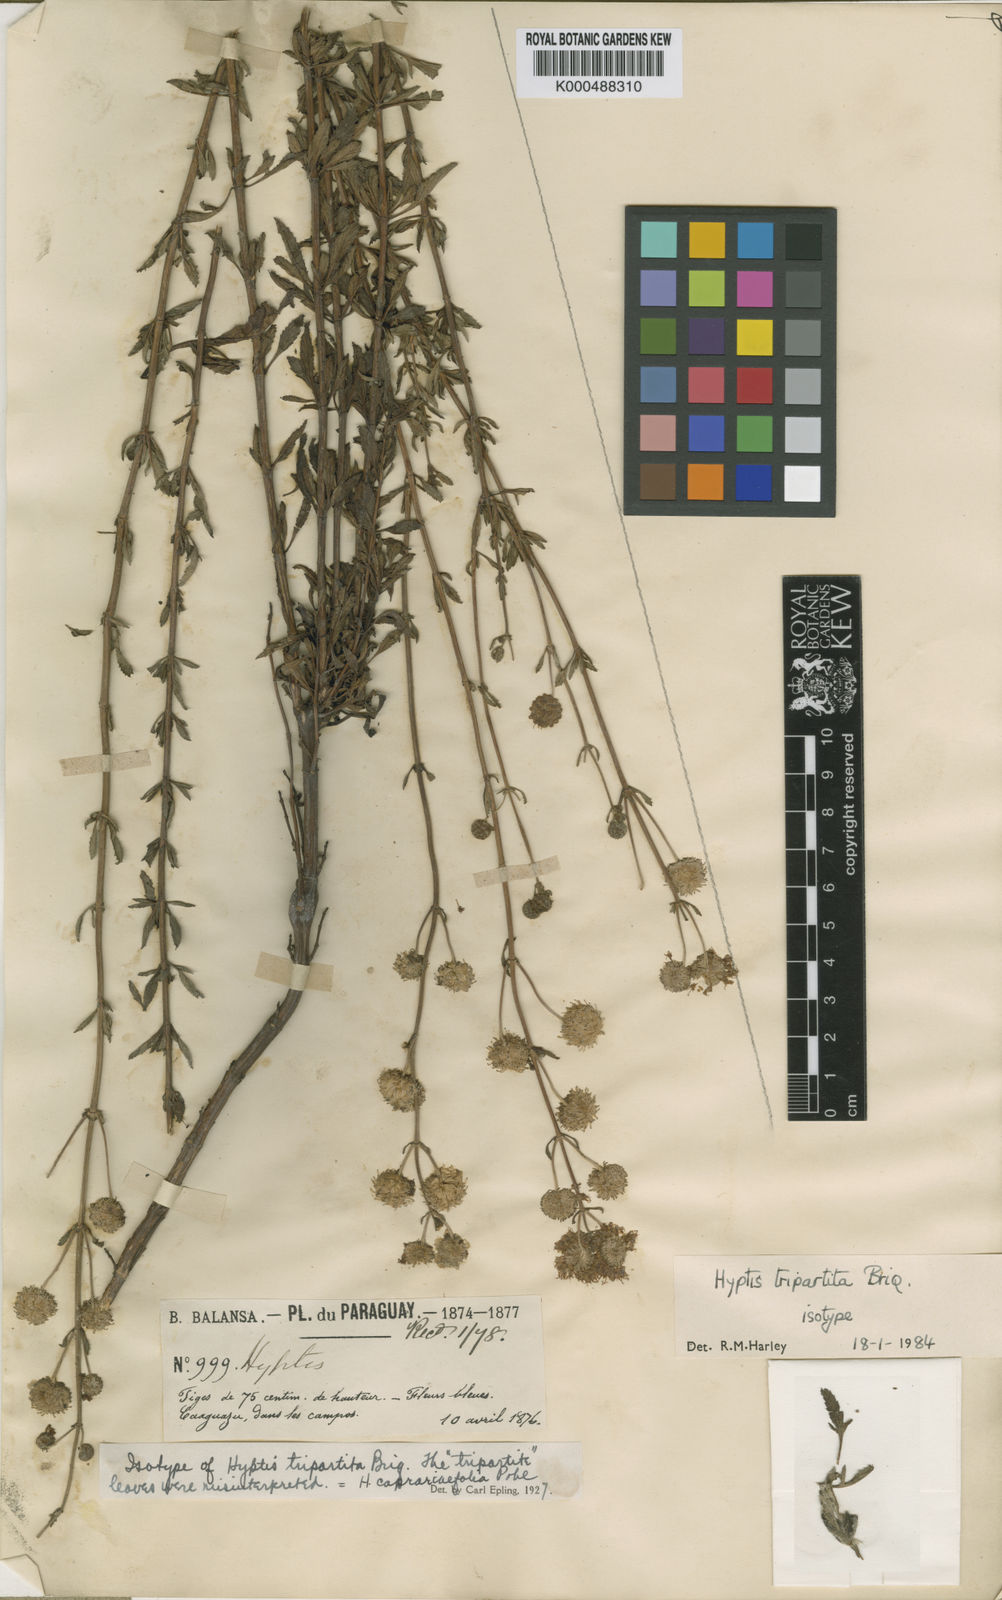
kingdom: Plantae
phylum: Tracheophyta
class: Magnoliopsida
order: Lamiales
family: Lamiaceae
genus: Cyanocephalus
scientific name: Cyanocephalus tripartitus
